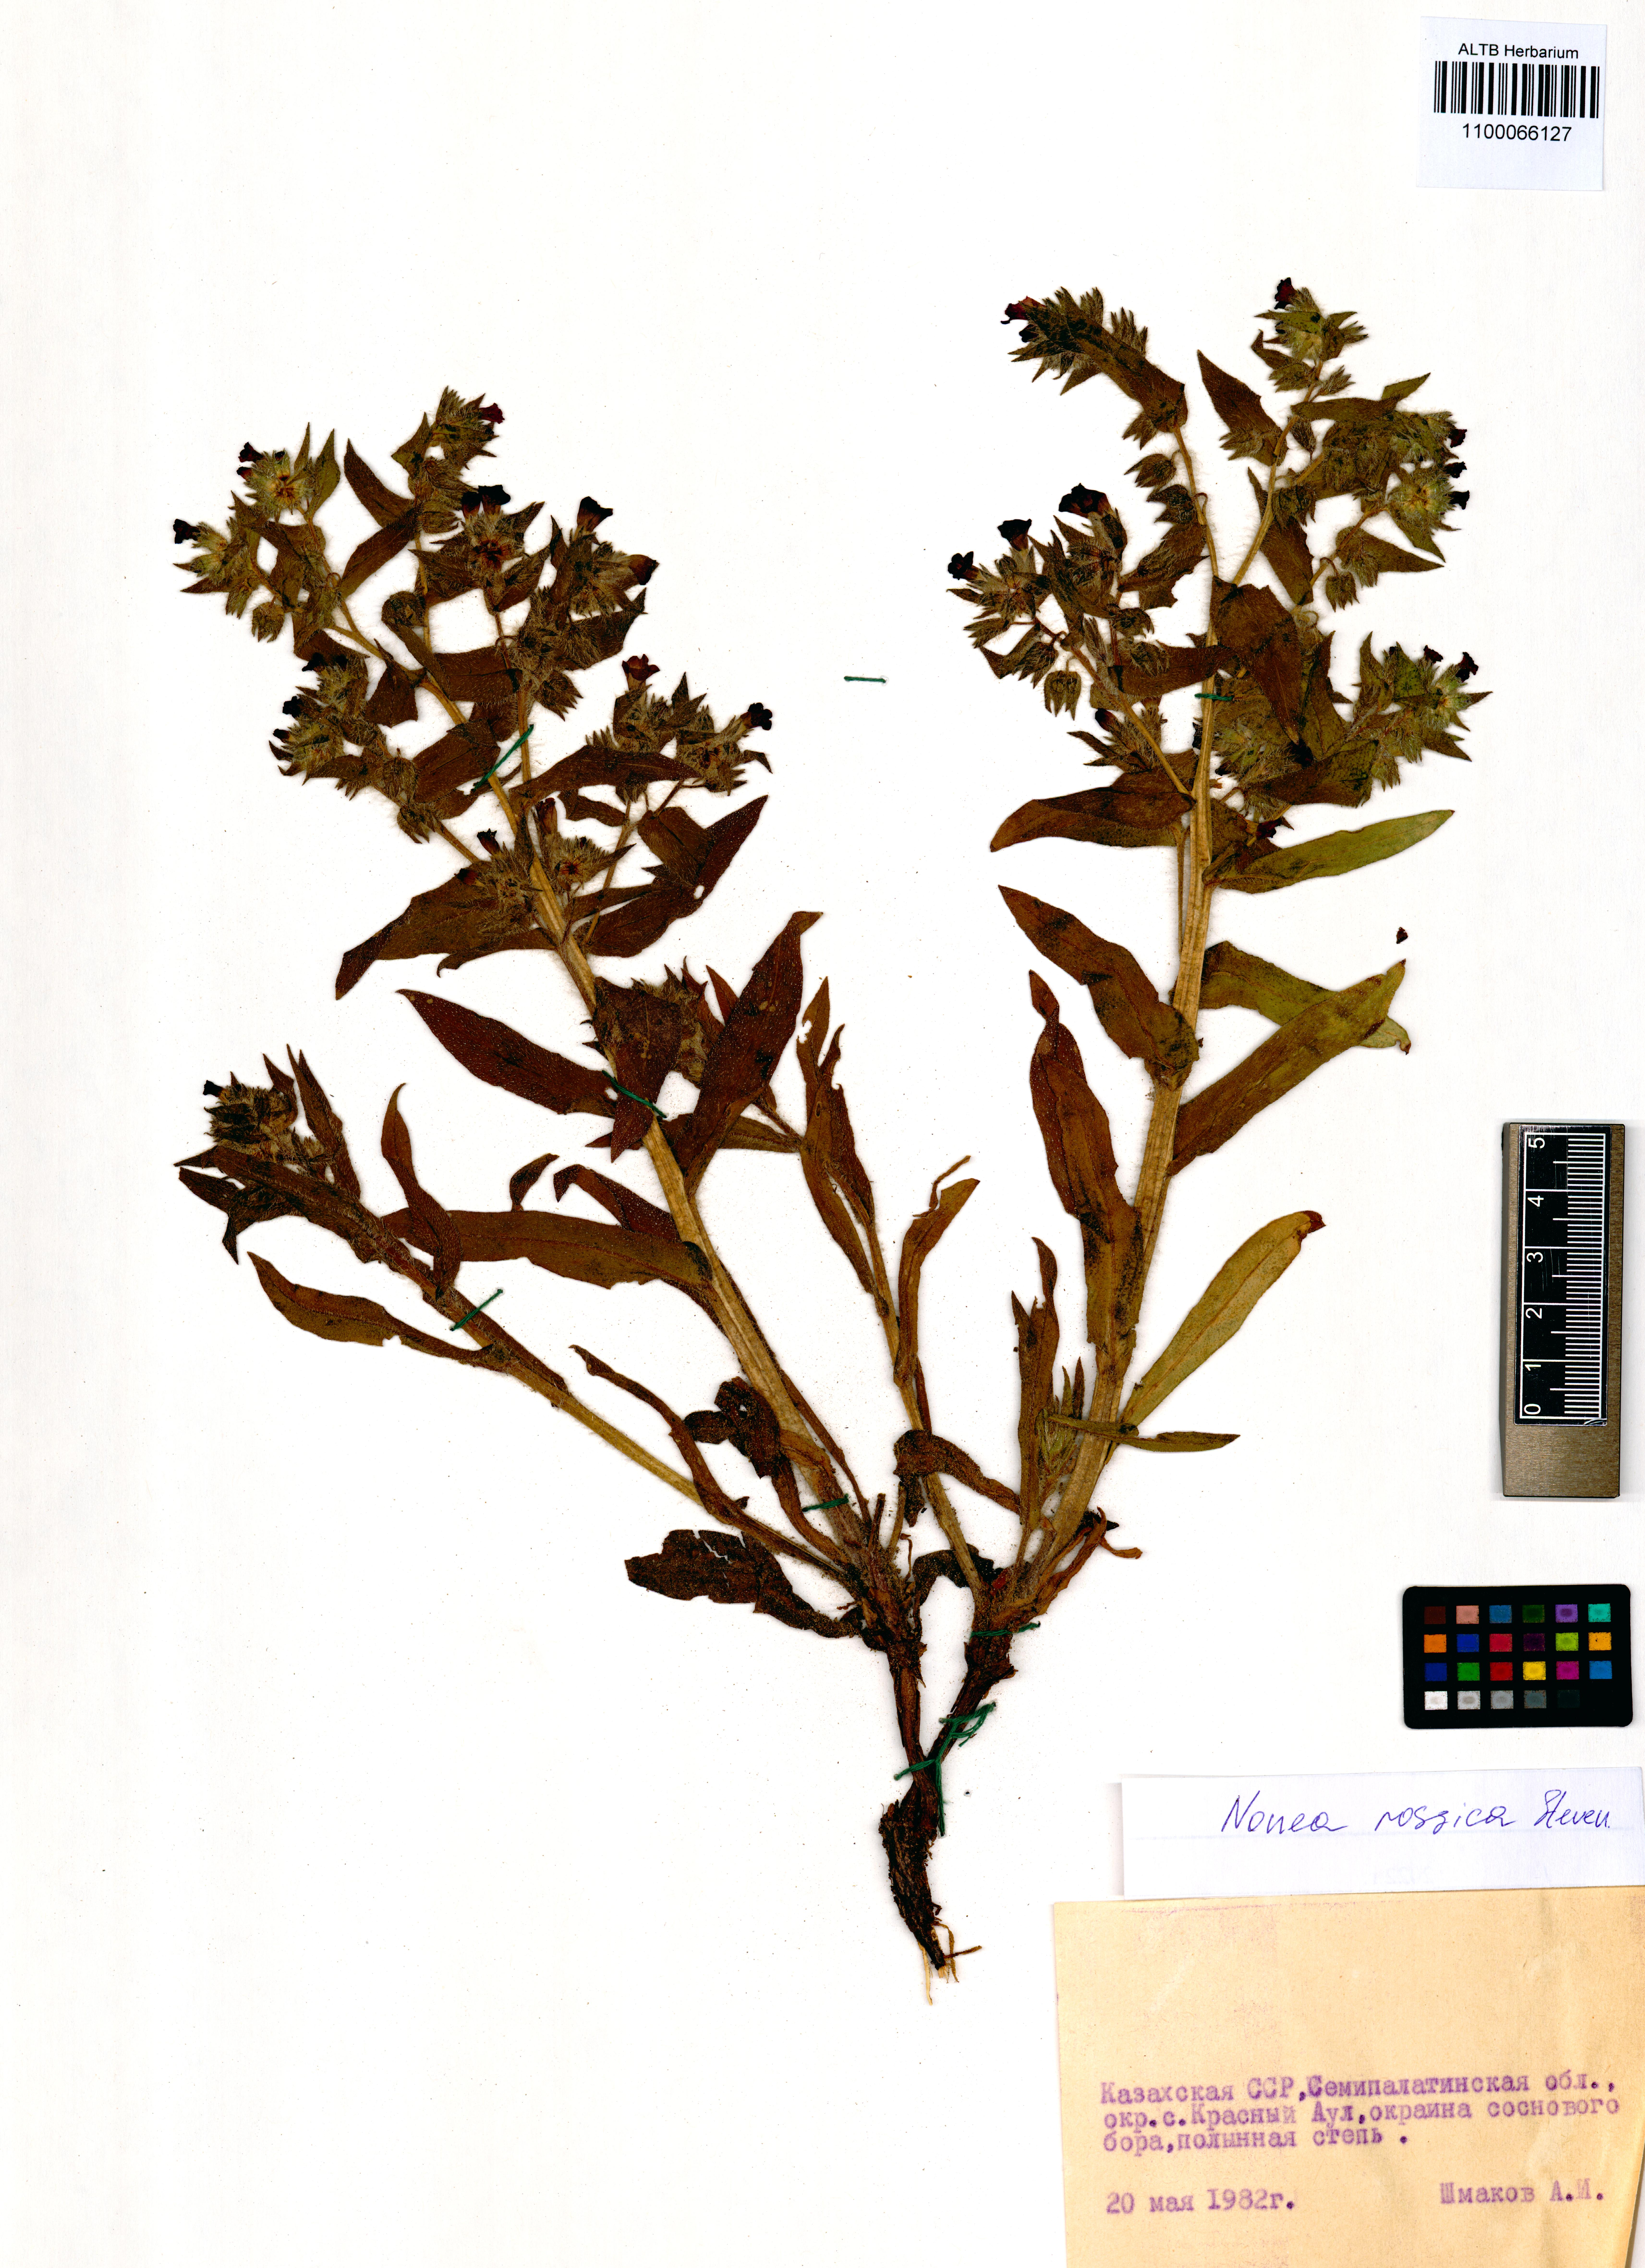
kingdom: Plantae
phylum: Tracheophyta
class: Magnoliopsida
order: Boraginales
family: Boraginaceae
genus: Nonea
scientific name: Nonea pulla
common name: Brown nonea
